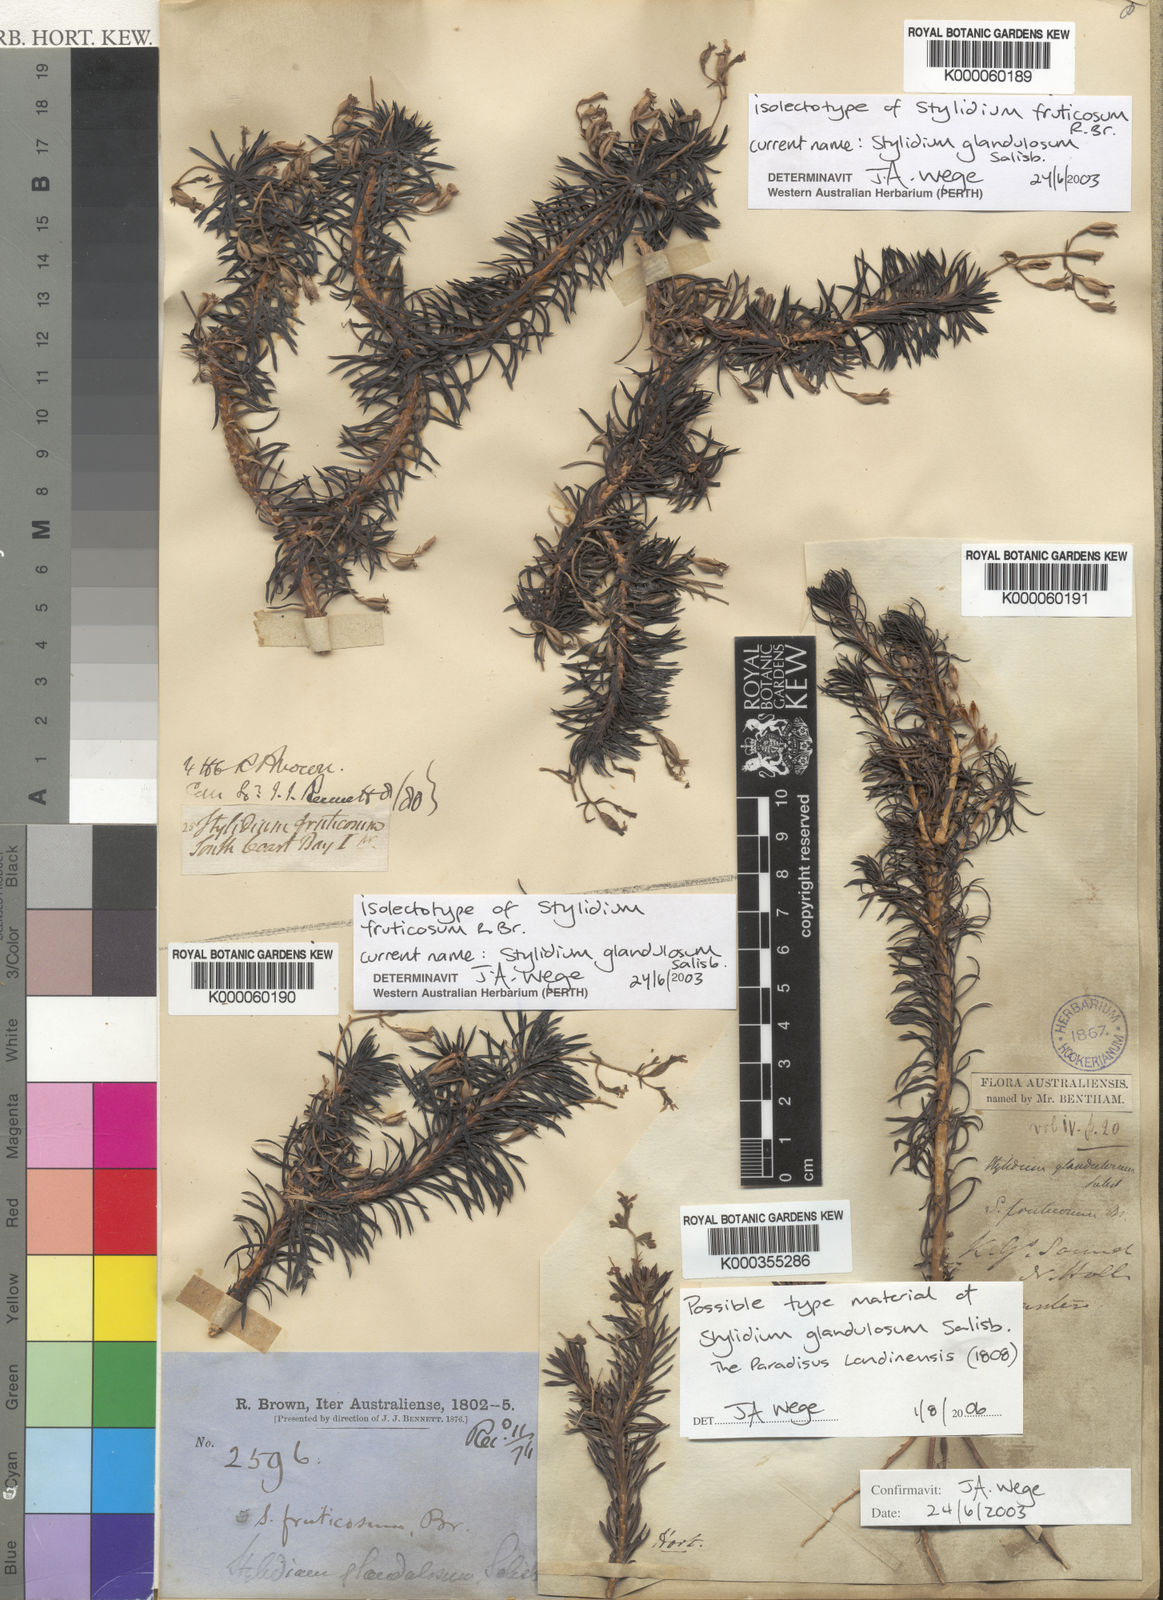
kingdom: Plantae
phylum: Tracheophyta
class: Magnoliopsida
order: Asterales
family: Stylidiaceae
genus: Stylidium
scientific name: Stylidium glandulosum
